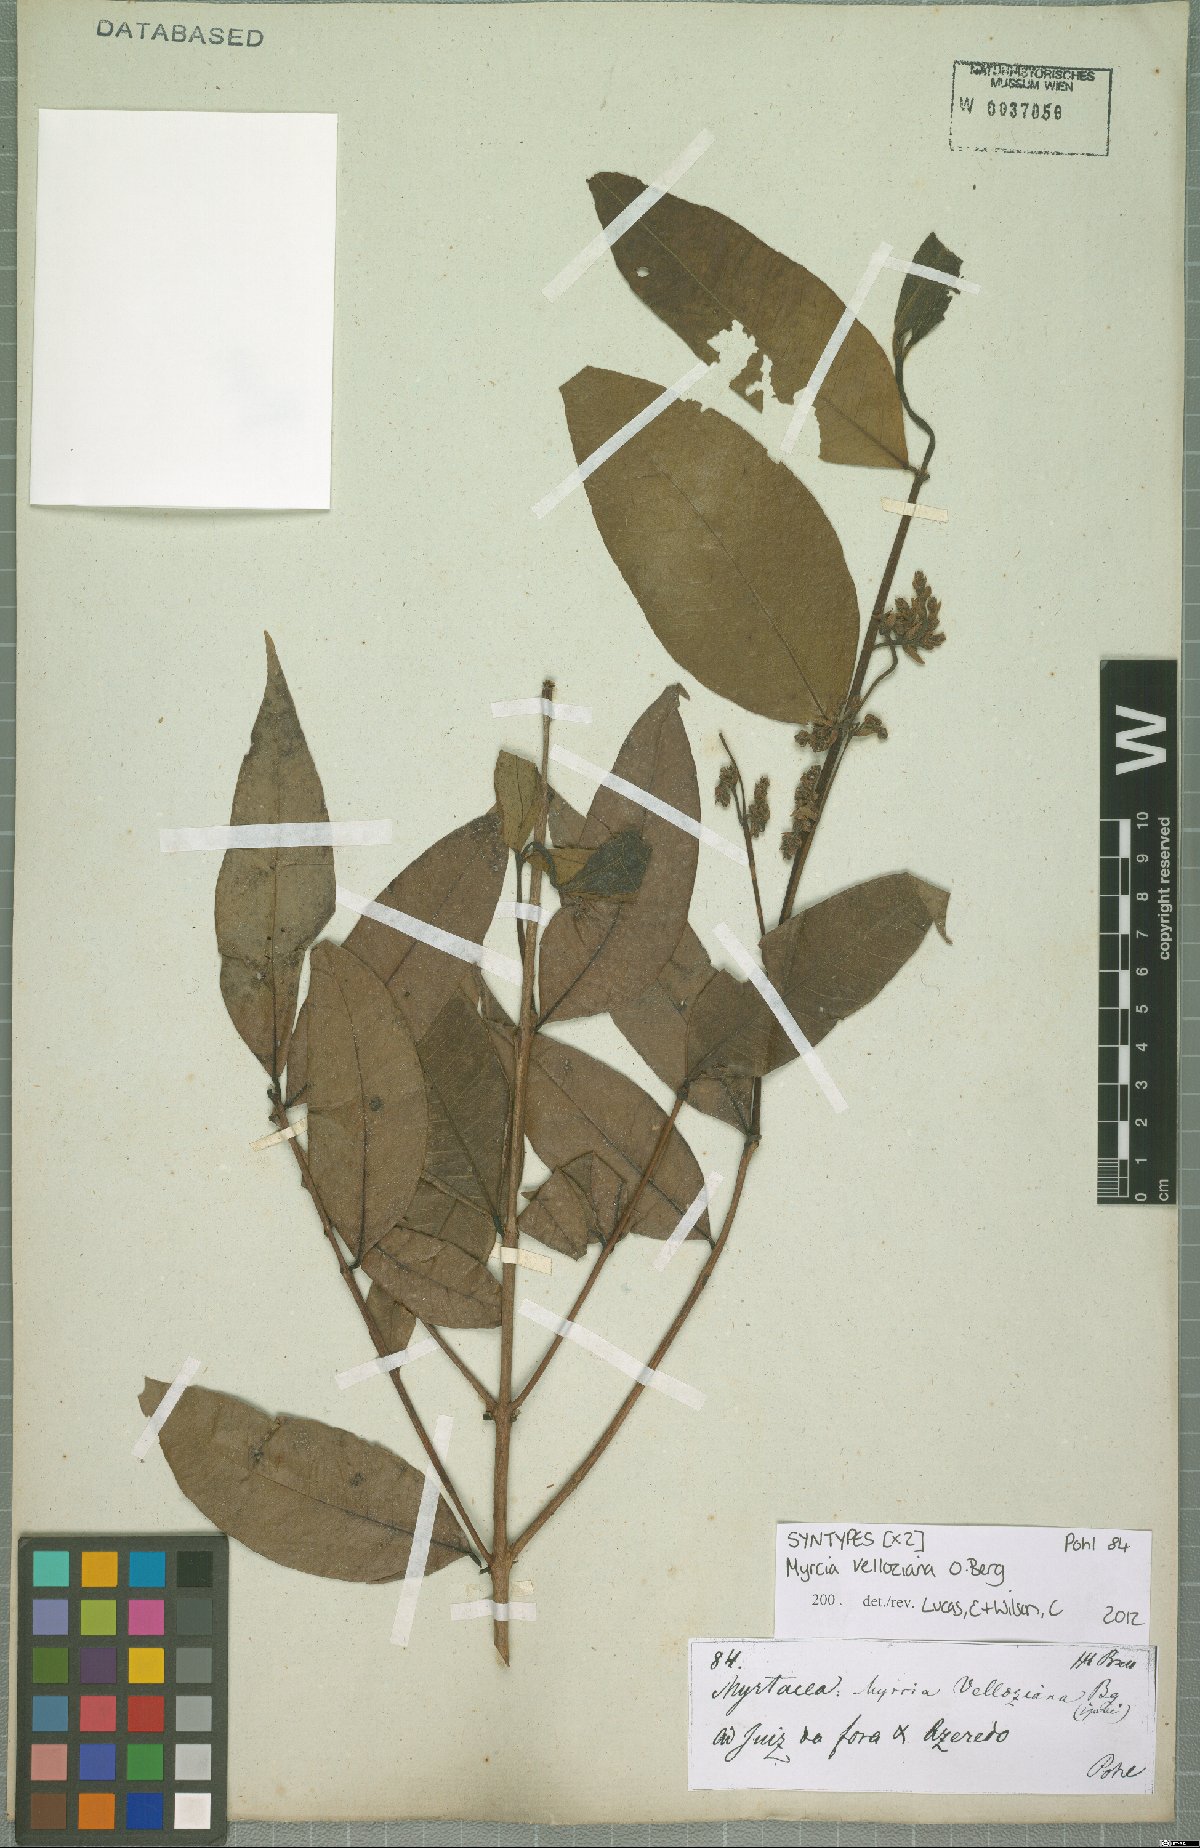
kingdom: Plantae
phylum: Tracheophyta
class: Magnoliopsida
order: Myrtales
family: Myrtaceae
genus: Myrcia
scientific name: Myrcia velloziana
